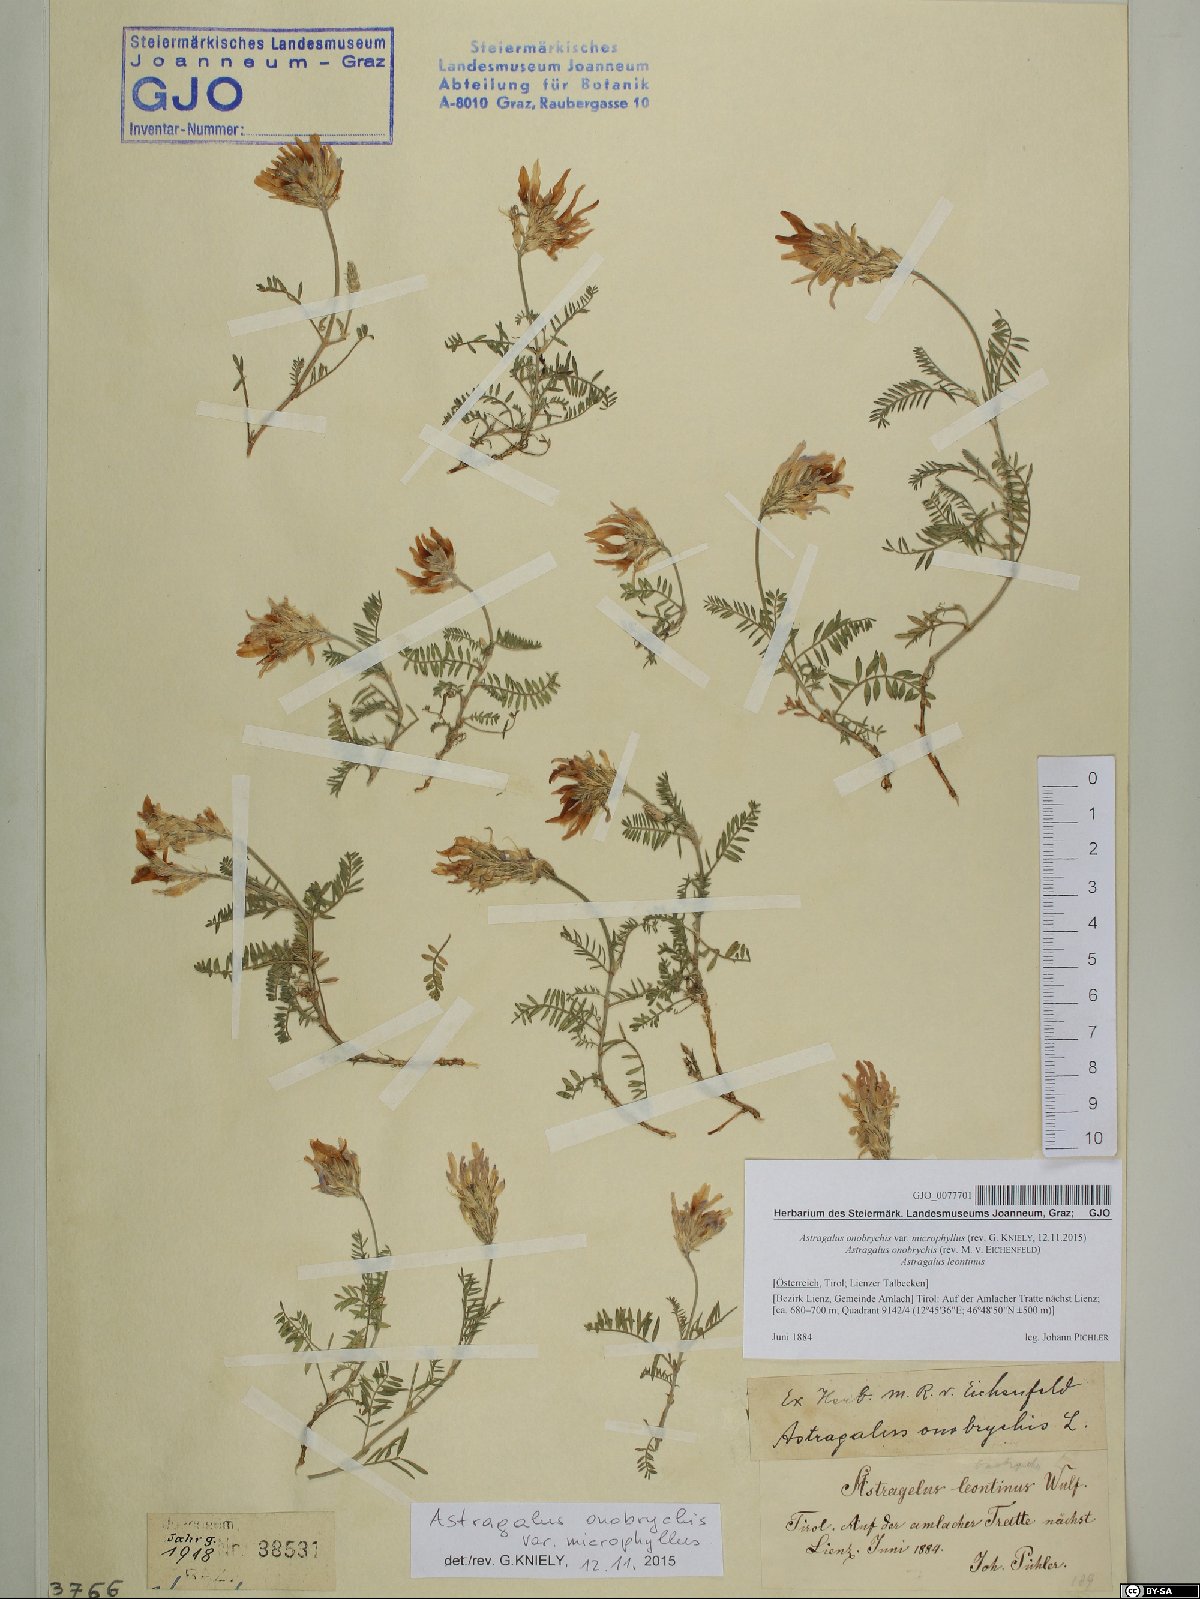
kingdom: Plantae
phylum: Tracheophyta
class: Magnoliopsida
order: Fabales
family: Fabaceae
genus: Astragalus
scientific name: Astragalus onobrychis
